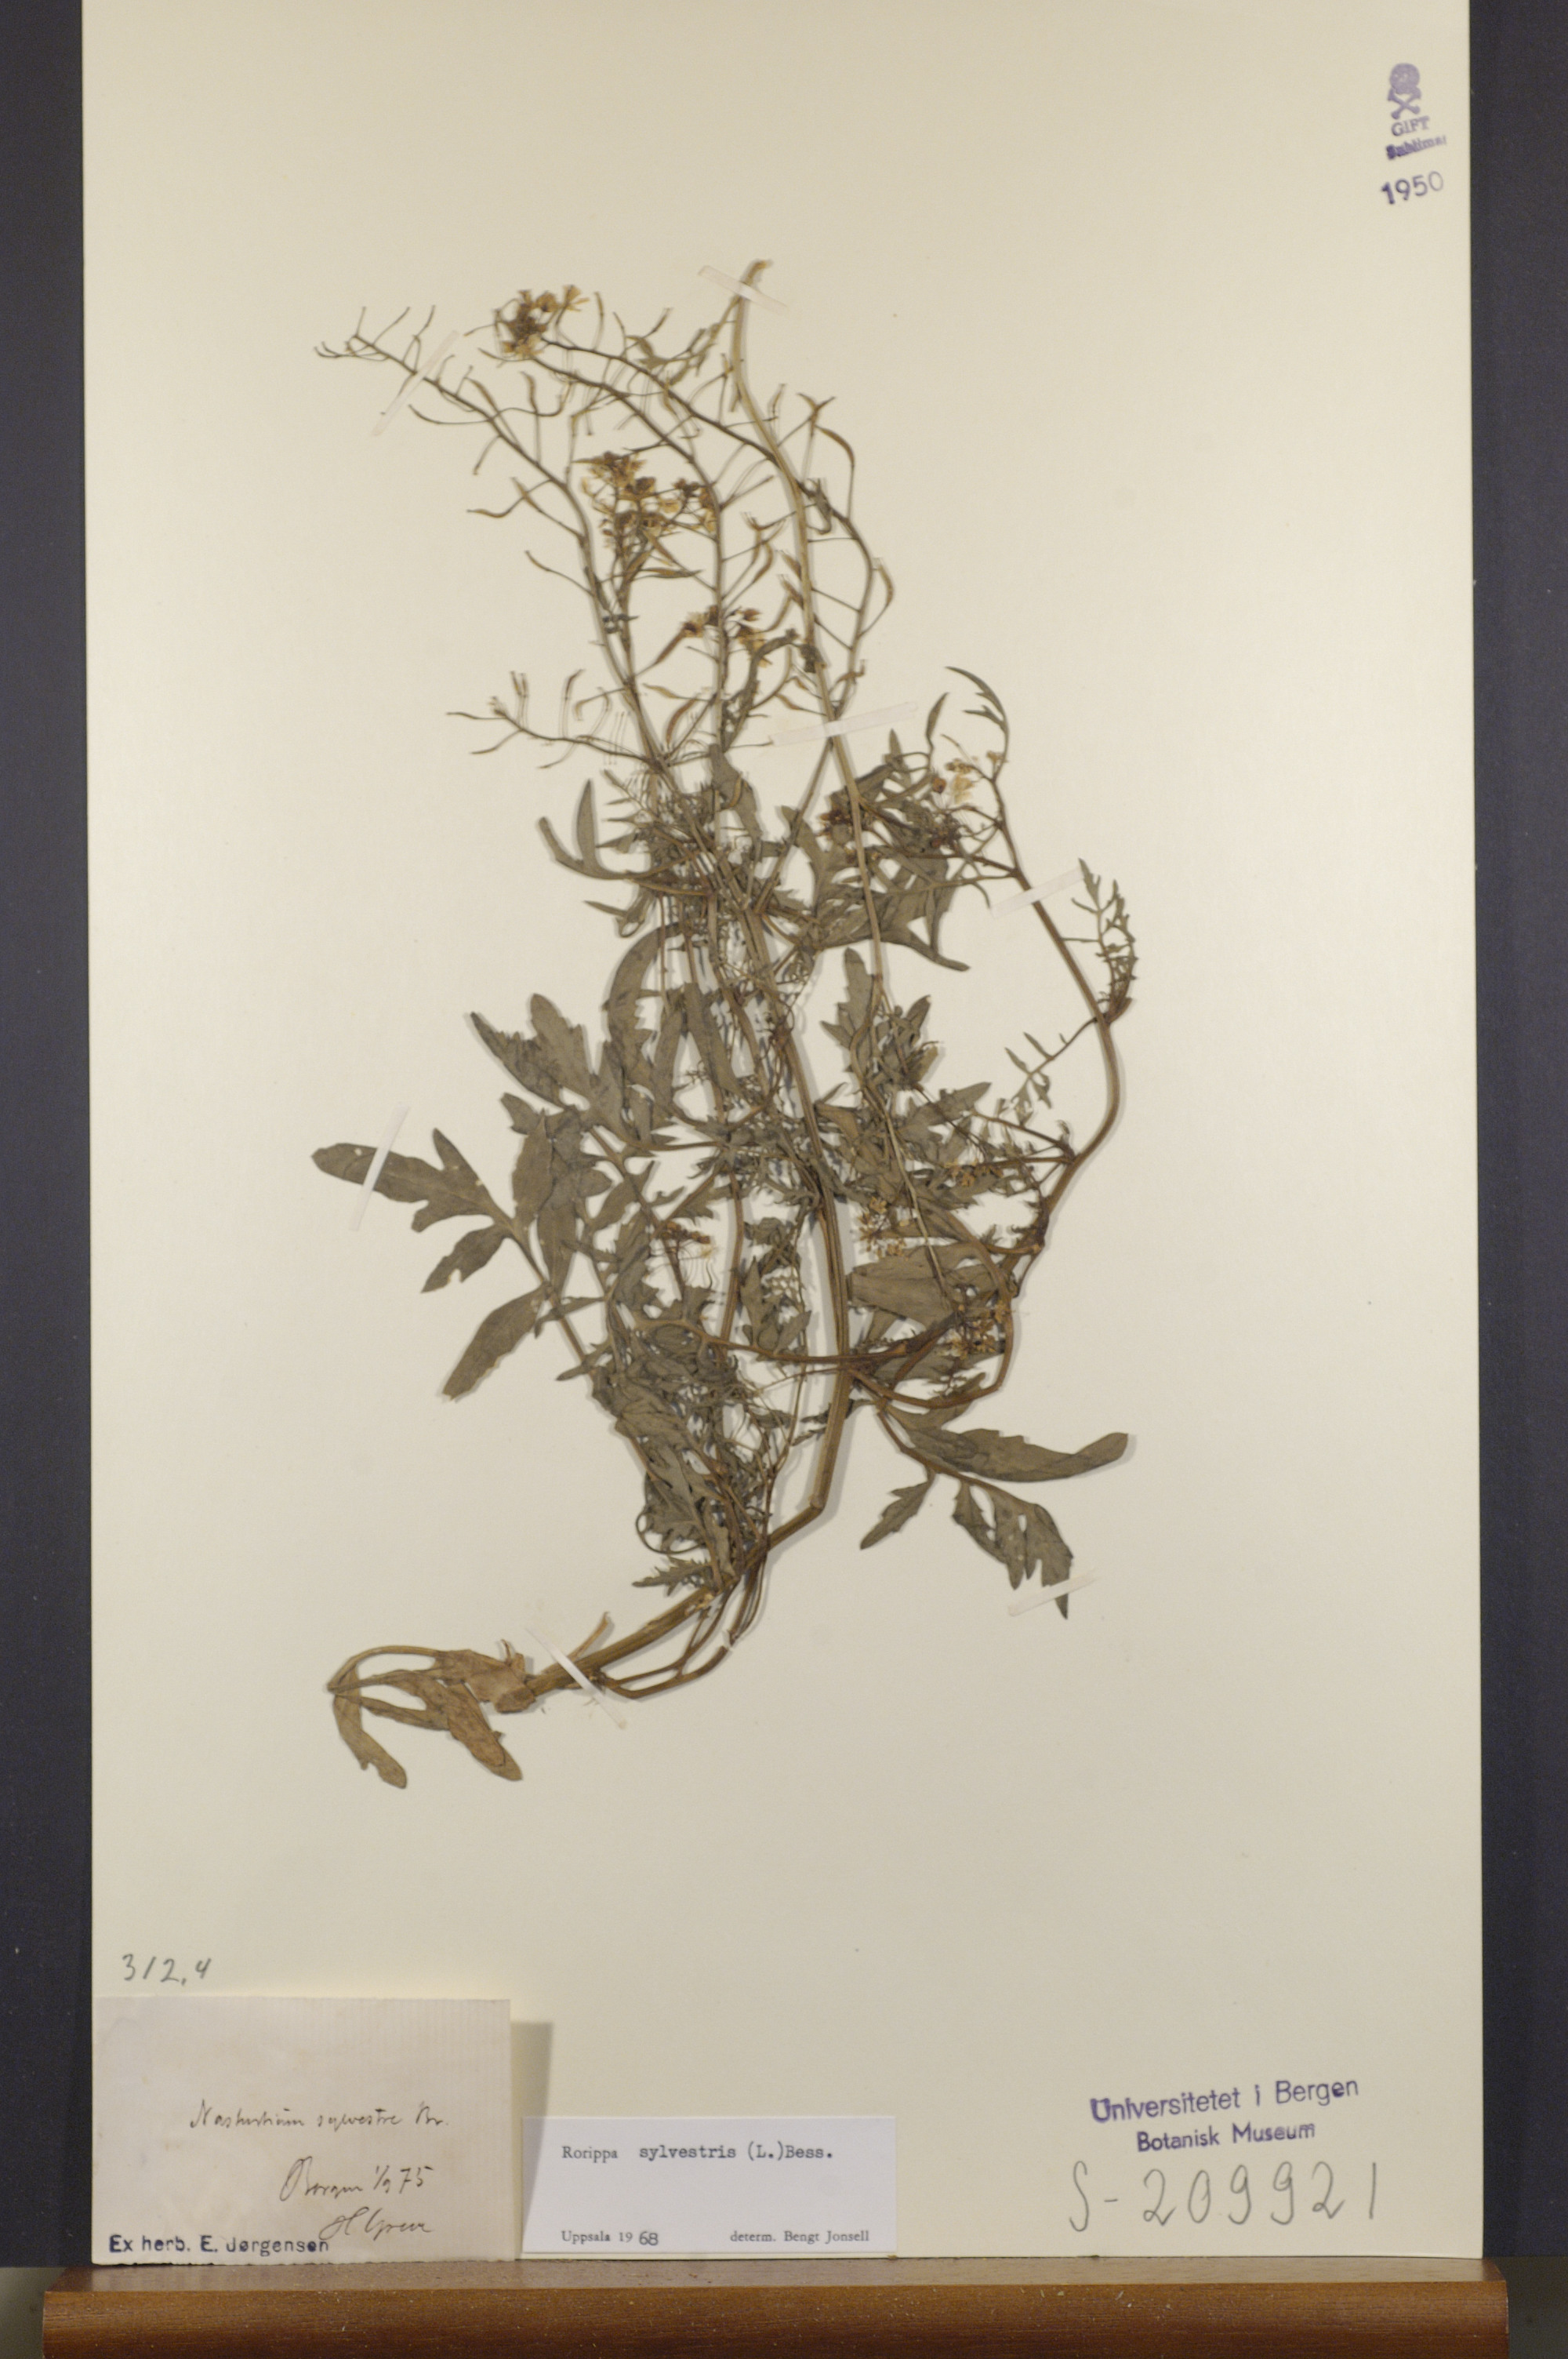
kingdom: Plantae
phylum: Tracheophyta
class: Magnoliopsida
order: Brassicales
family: Brassicaceae
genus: Rorippa
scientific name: Rorippa sylvestris
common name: Creeping yellowcress
